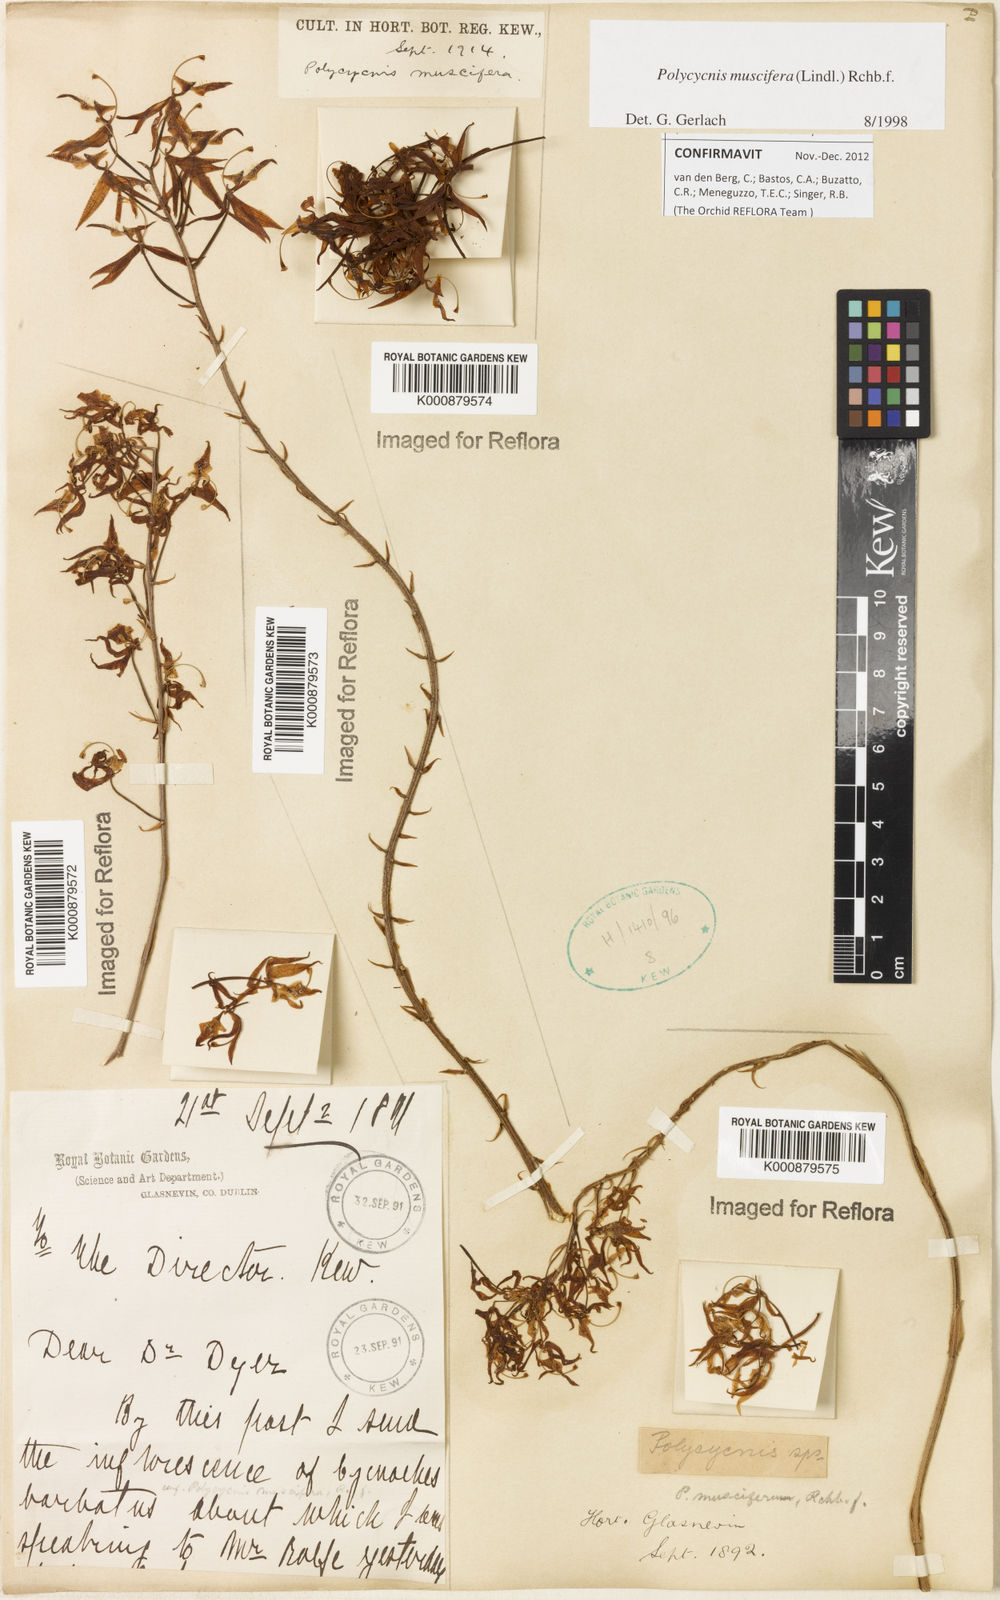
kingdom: Plantae
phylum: Tracheophyta
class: Liliopsida
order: Asparagales
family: Orchidaceae
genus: Polycycnis
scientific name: Polycycnis muscifera
